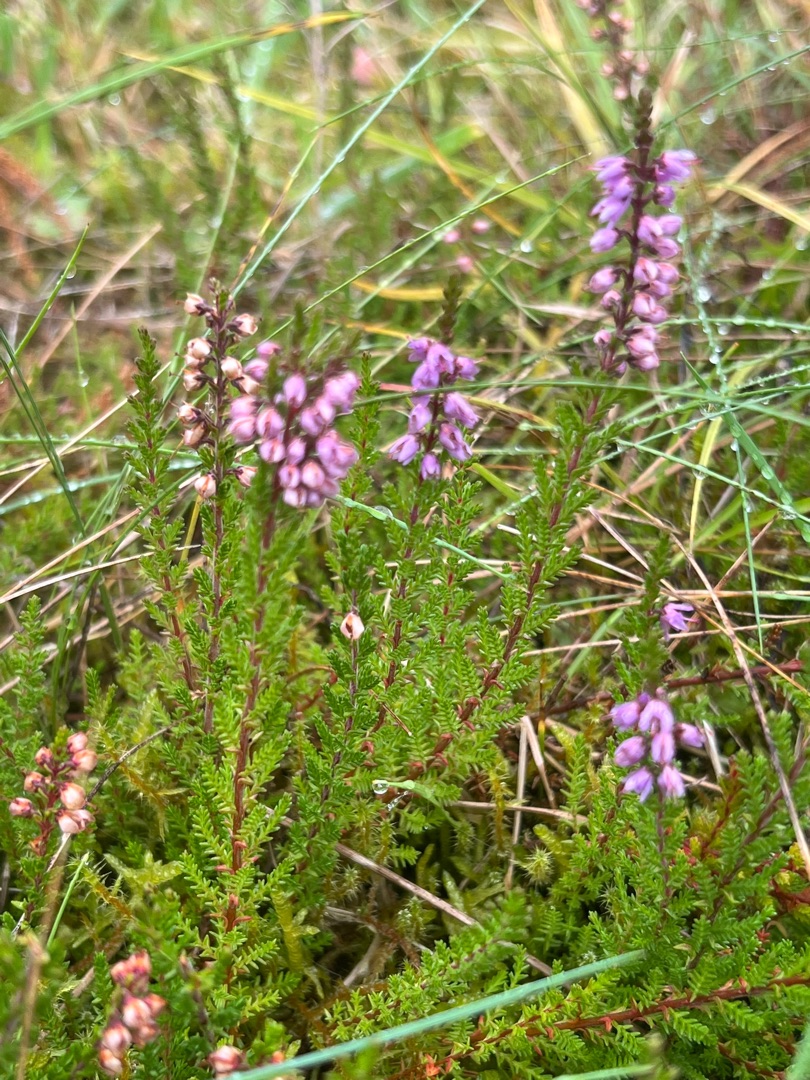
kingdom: Plantae
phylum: Tracheophyta
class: Magnoliopsida
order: Ericales
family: Ericaceae
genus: Calluna
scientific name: Calluna vulgaris
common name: Hedelyng
